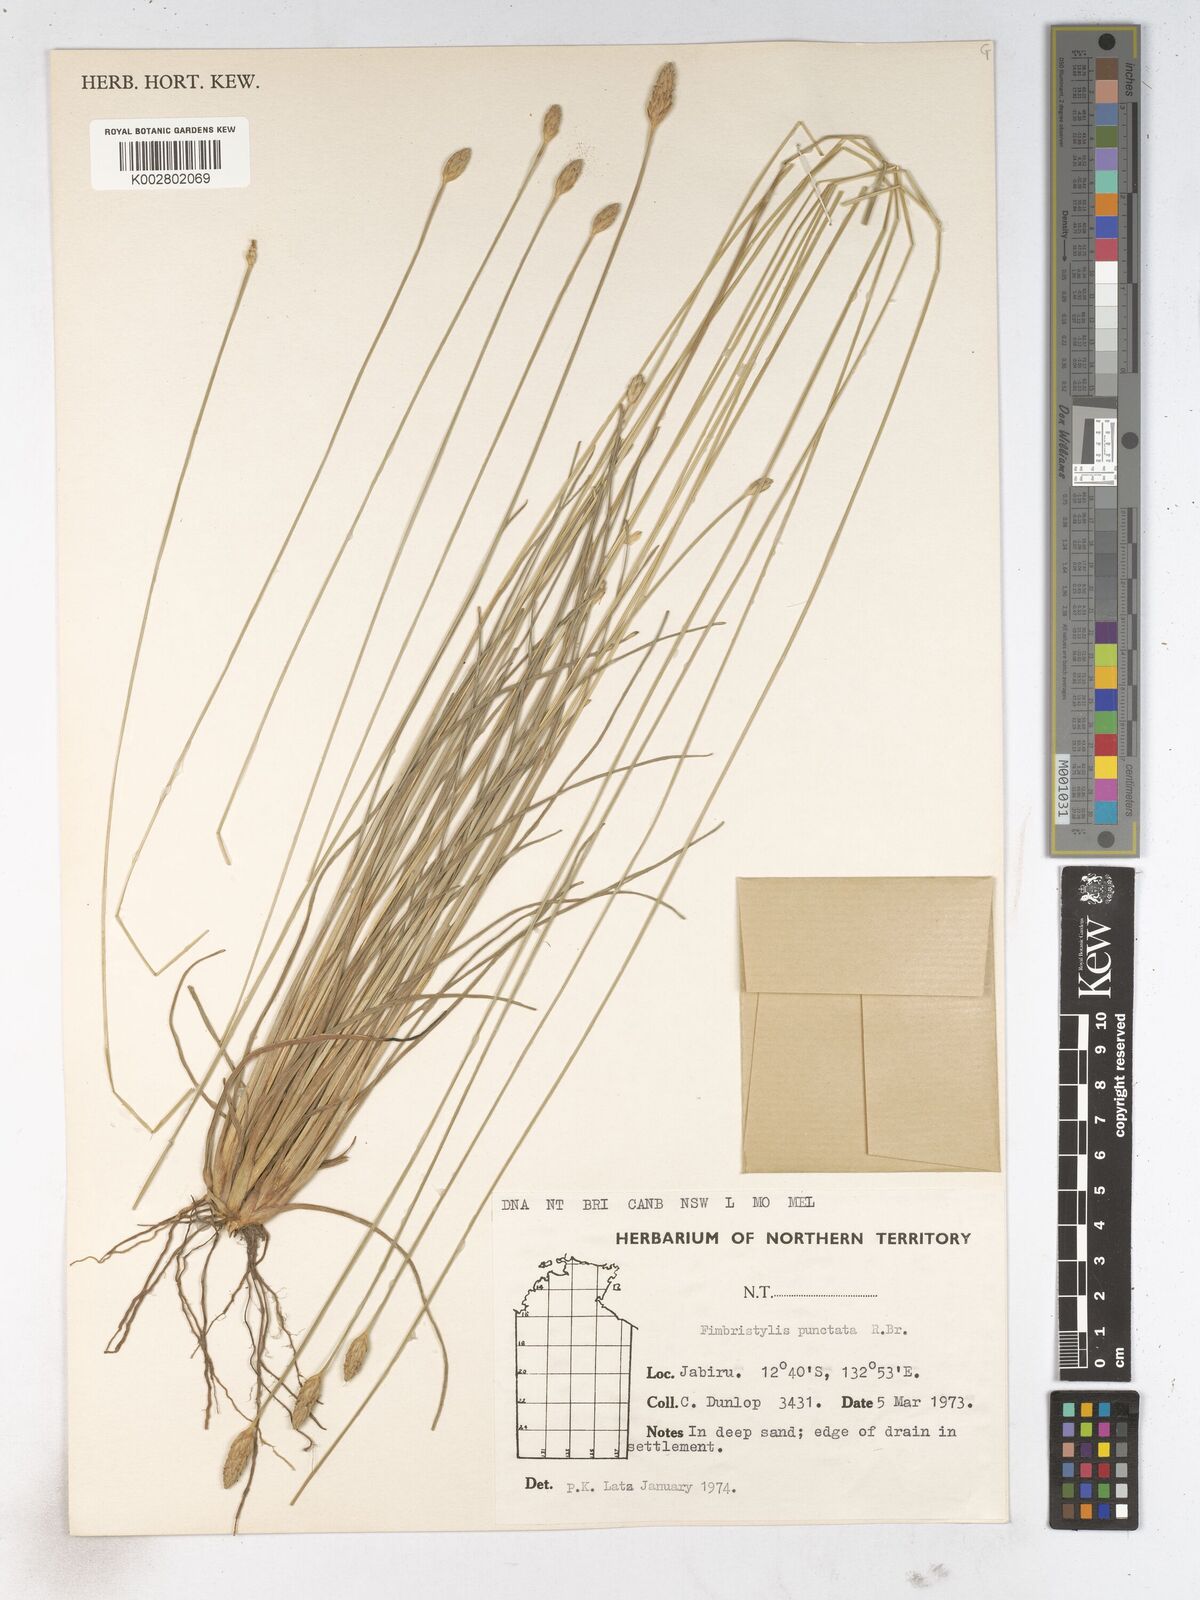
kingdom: Plantae
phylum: Tracheophyta
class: Liliopsida
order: Poales
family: Cyperaceae
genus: Fimbristylis
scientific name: Fimbristylis punctata
